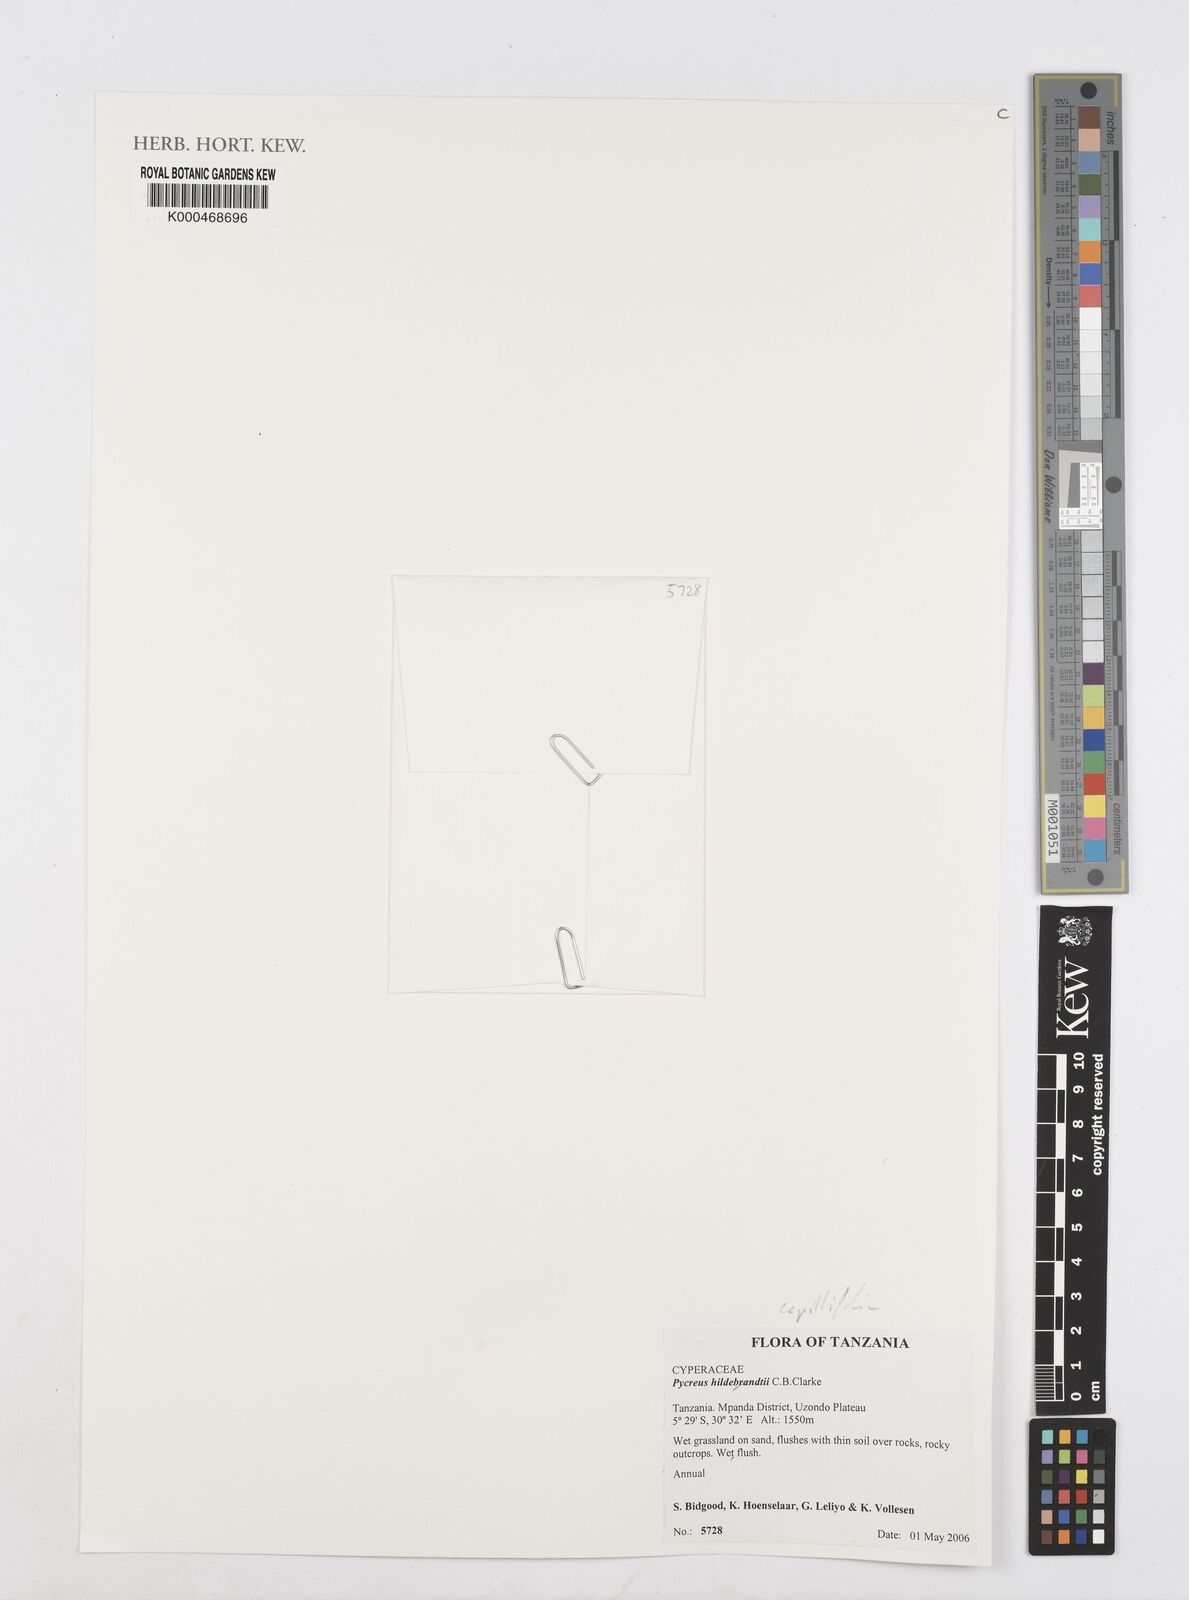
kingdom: Plantae
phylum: Tracheophyta
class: Liliopsida
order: Poales
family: Cyperaceae
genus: Cyperus
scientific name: Cyperus
